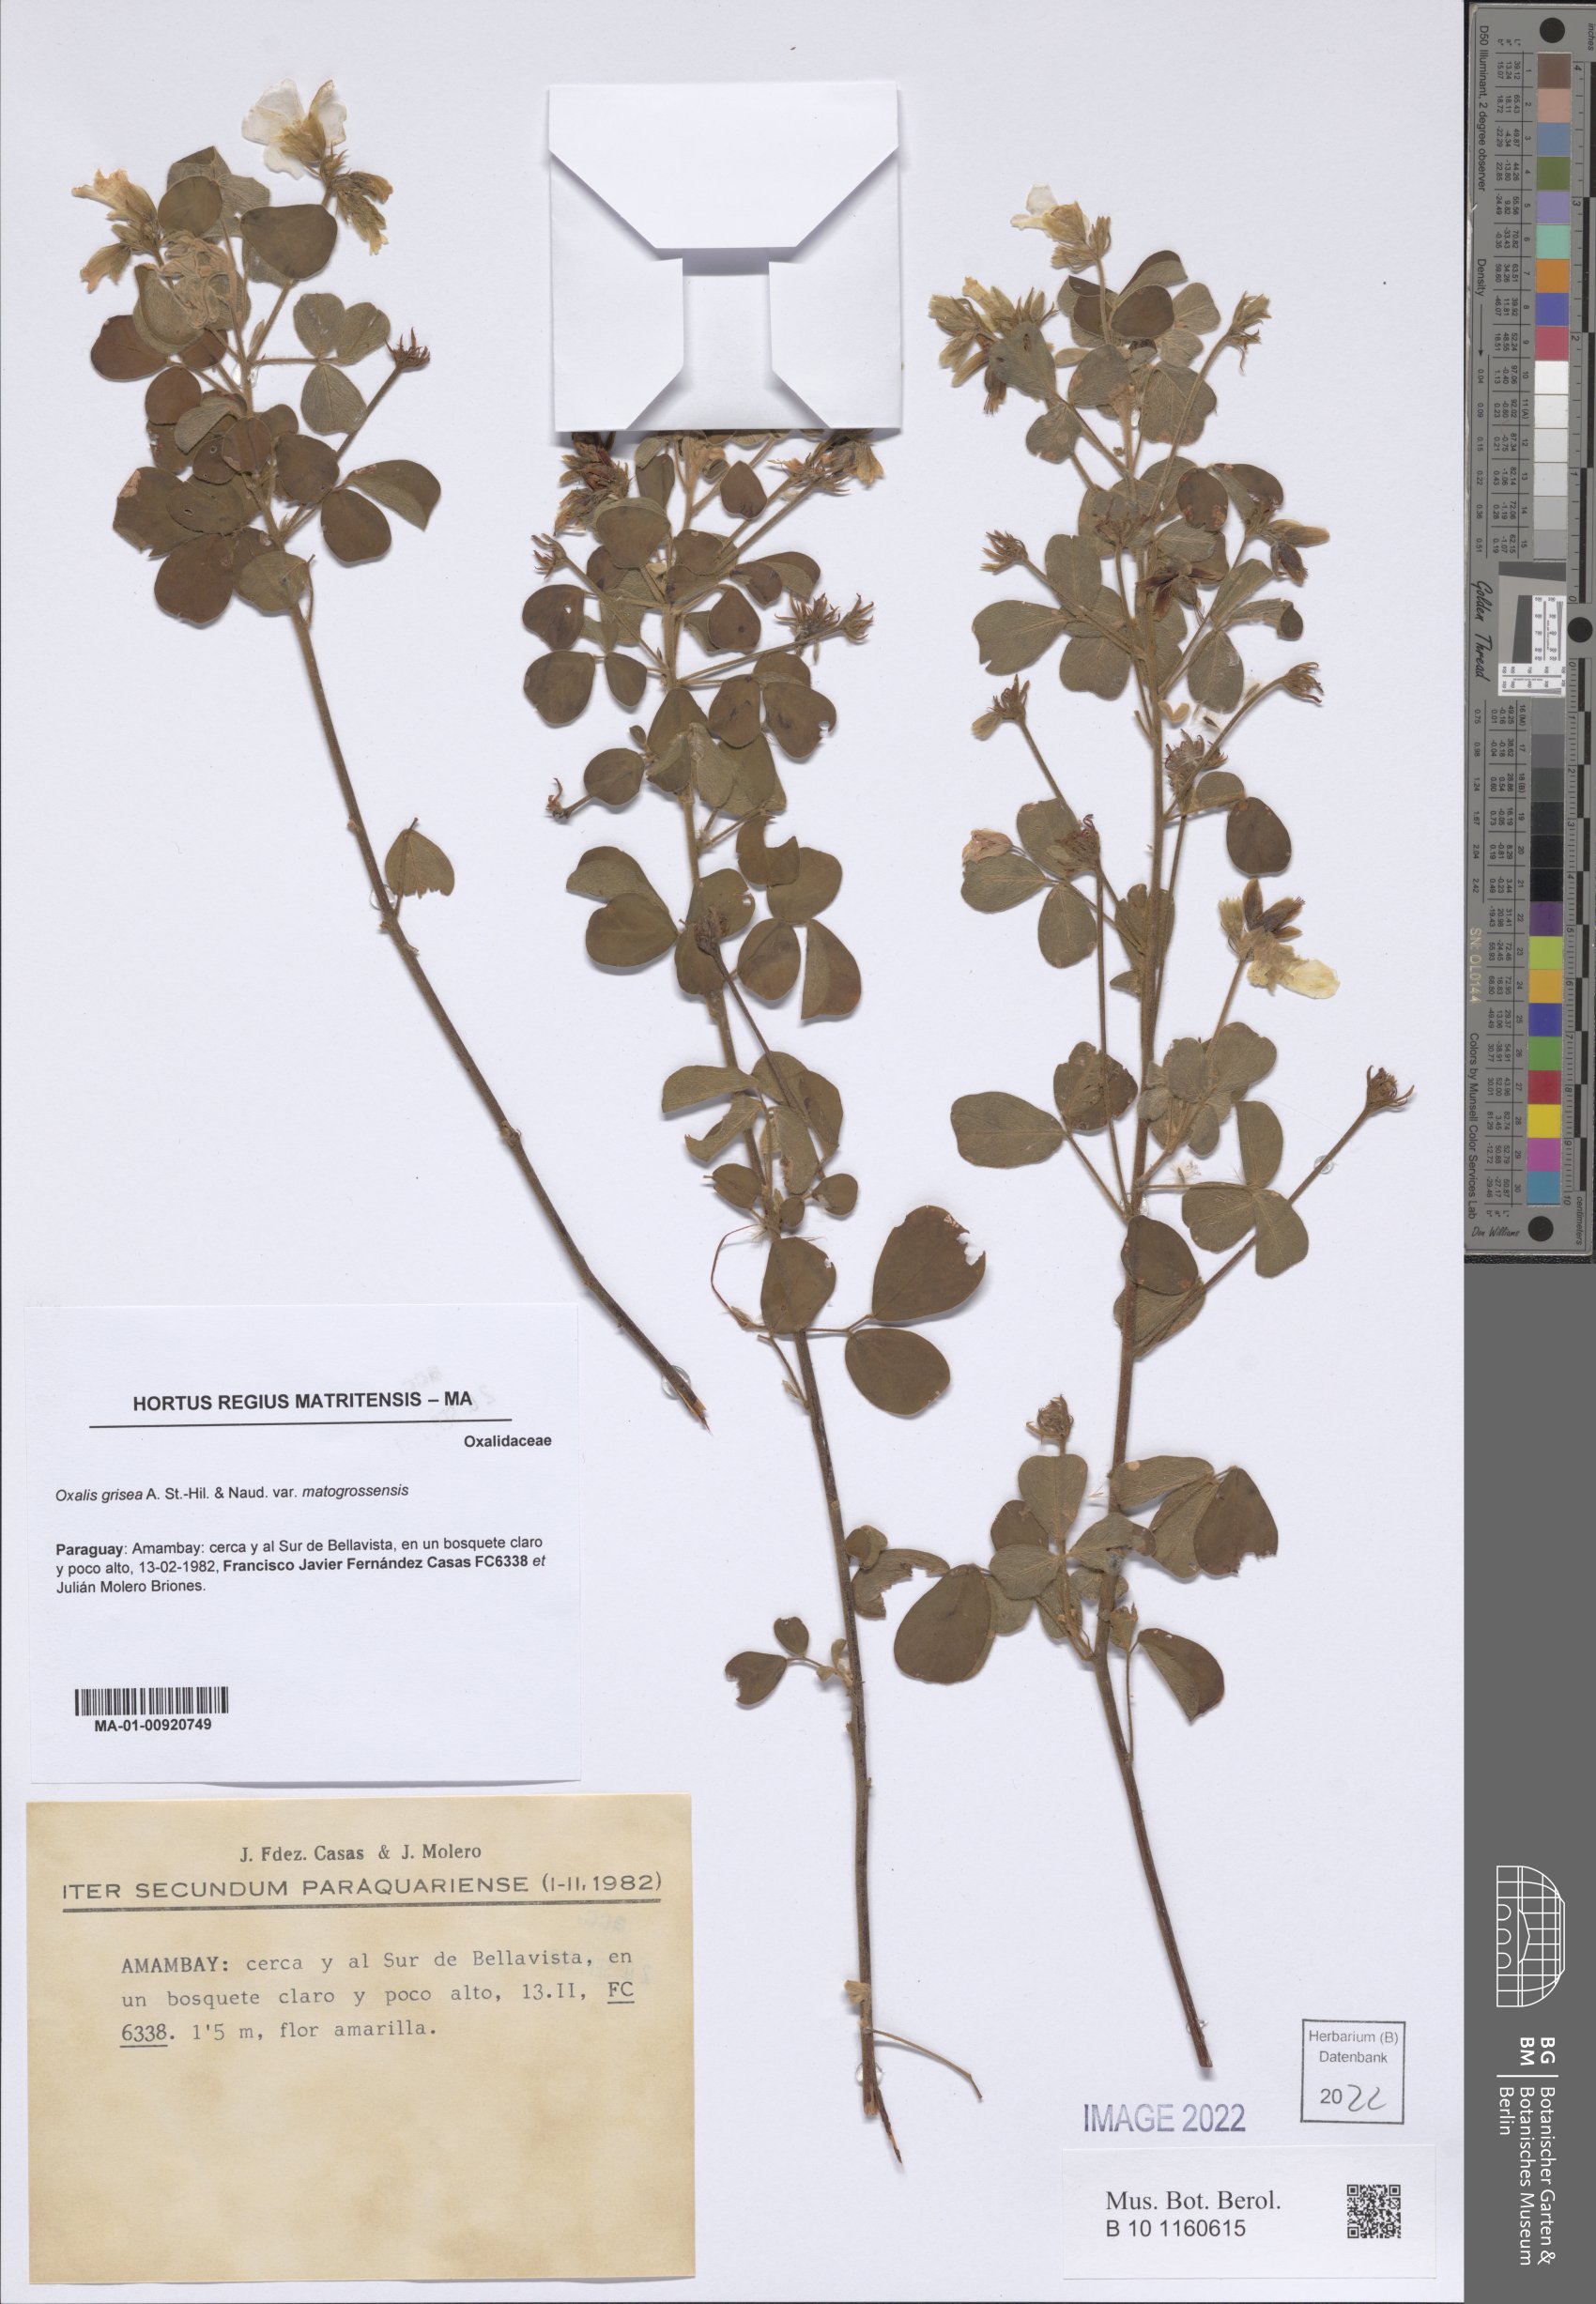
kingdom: Plantae
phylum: Tracheophyta
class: Magnoliopsida
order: Oxalidales
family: Oxalidaceae
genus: Oxalis
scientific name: Oxalis grisea
